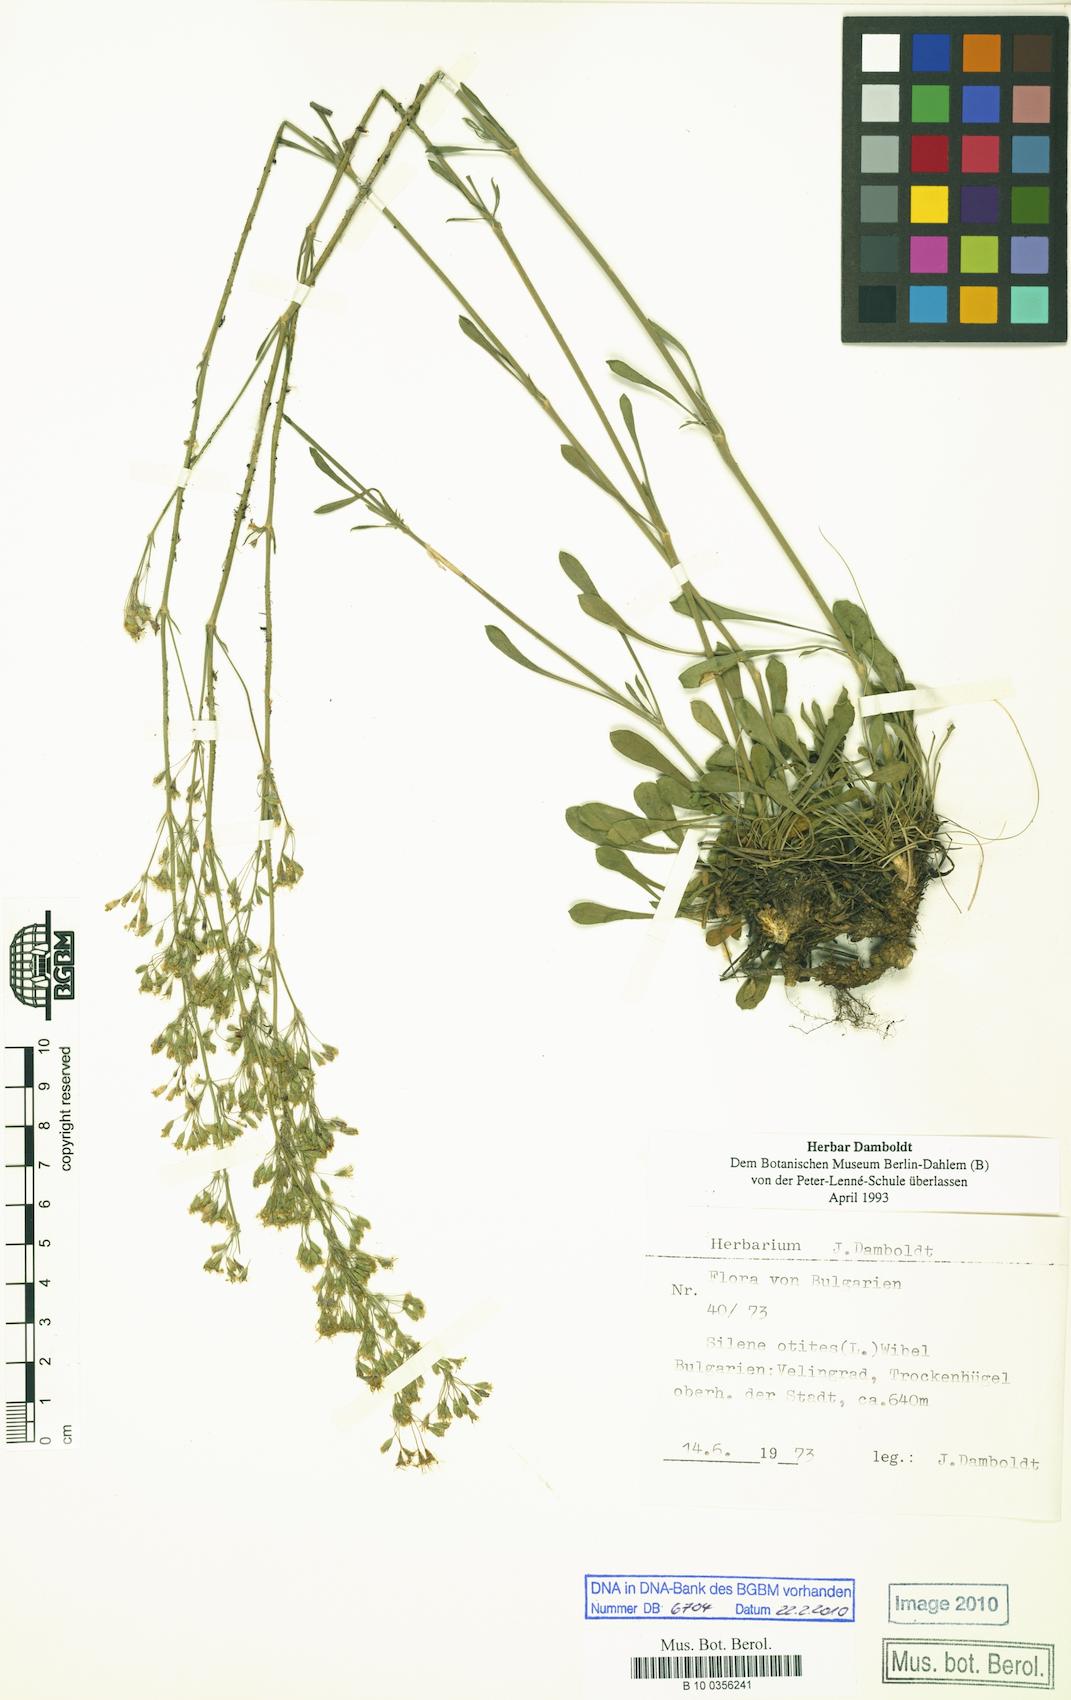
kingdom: Plantae
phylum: Tracheophyta
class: Magnoliopsida
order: Caryophyllales
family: Caryophyllaceae
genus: Silene
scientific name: Silene otites
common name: Spanish catchfly
